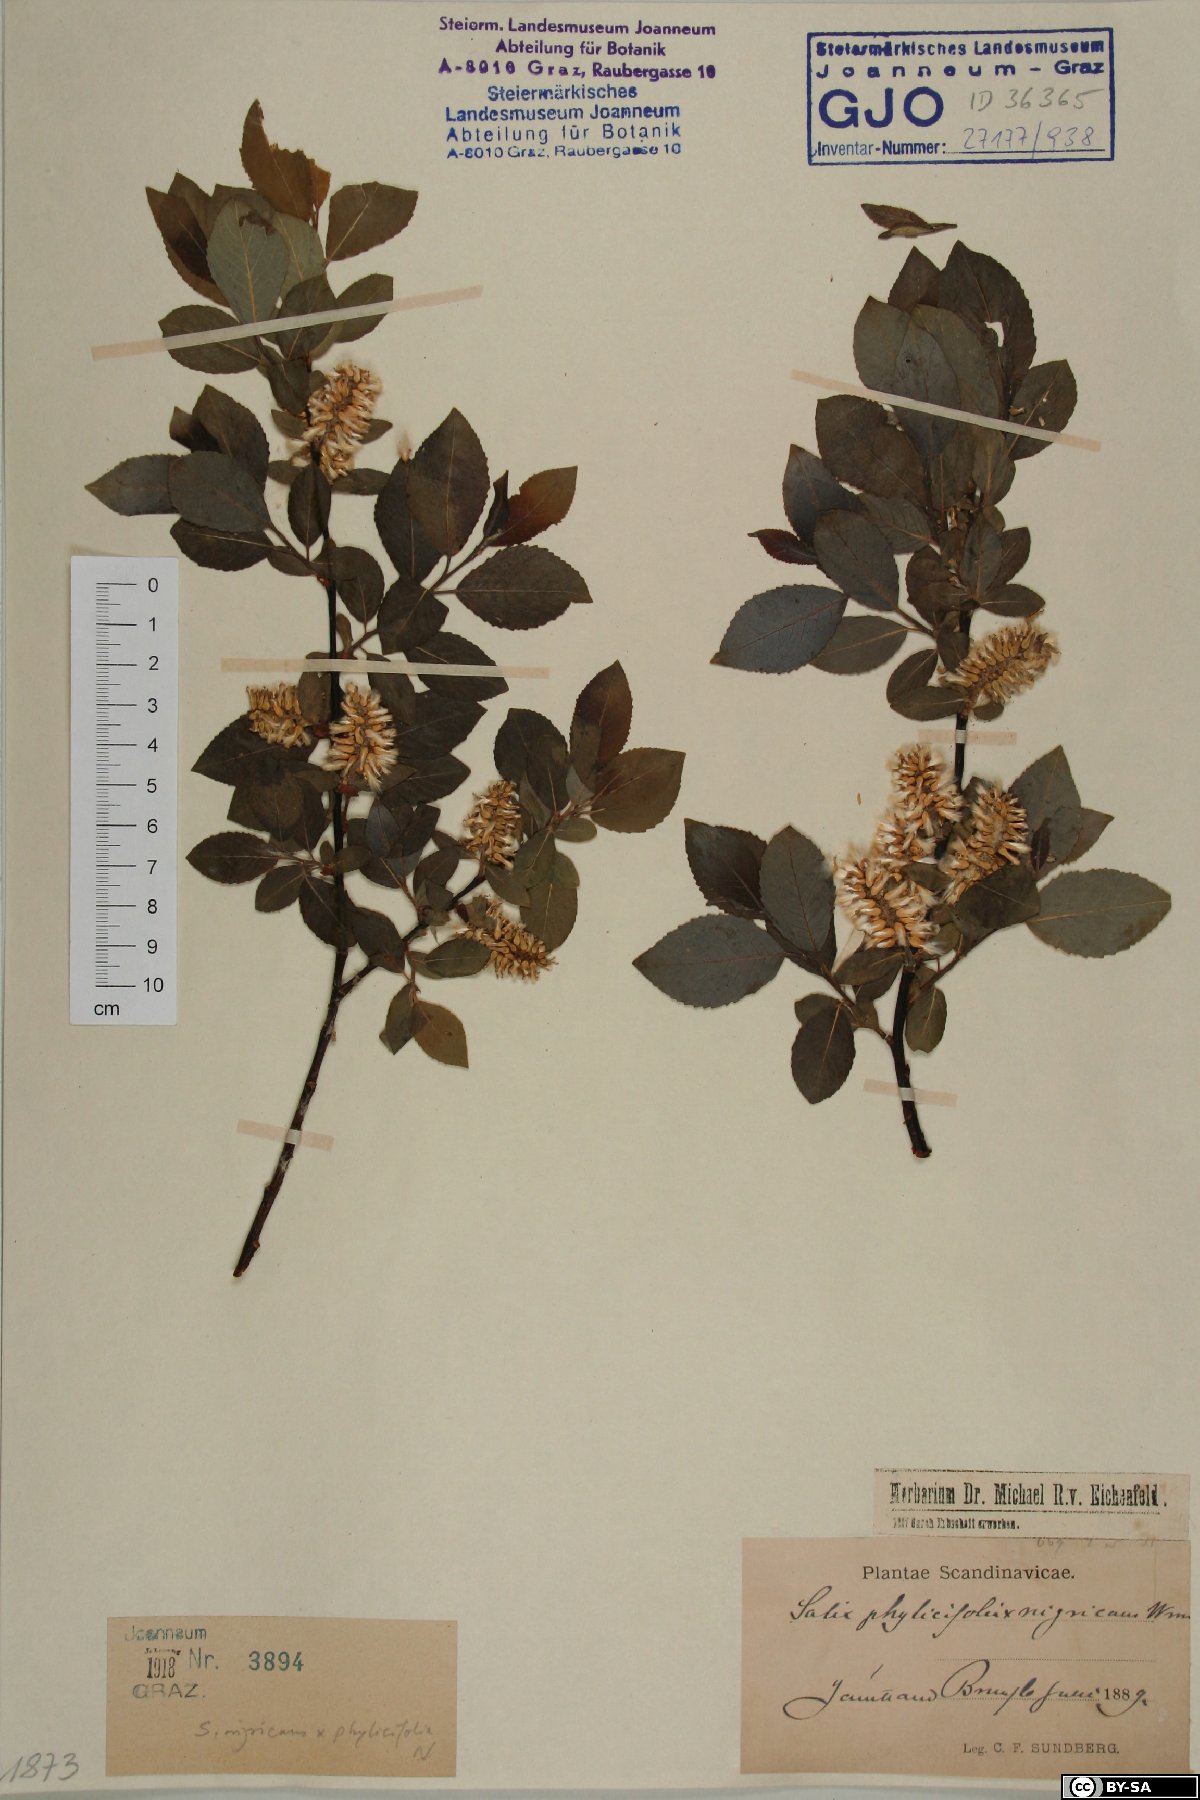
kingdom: Plantae
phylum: Tracheophyta
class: Magnoliopsida
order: Malpighiales
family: Salicaceae
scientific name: Salicaceae
